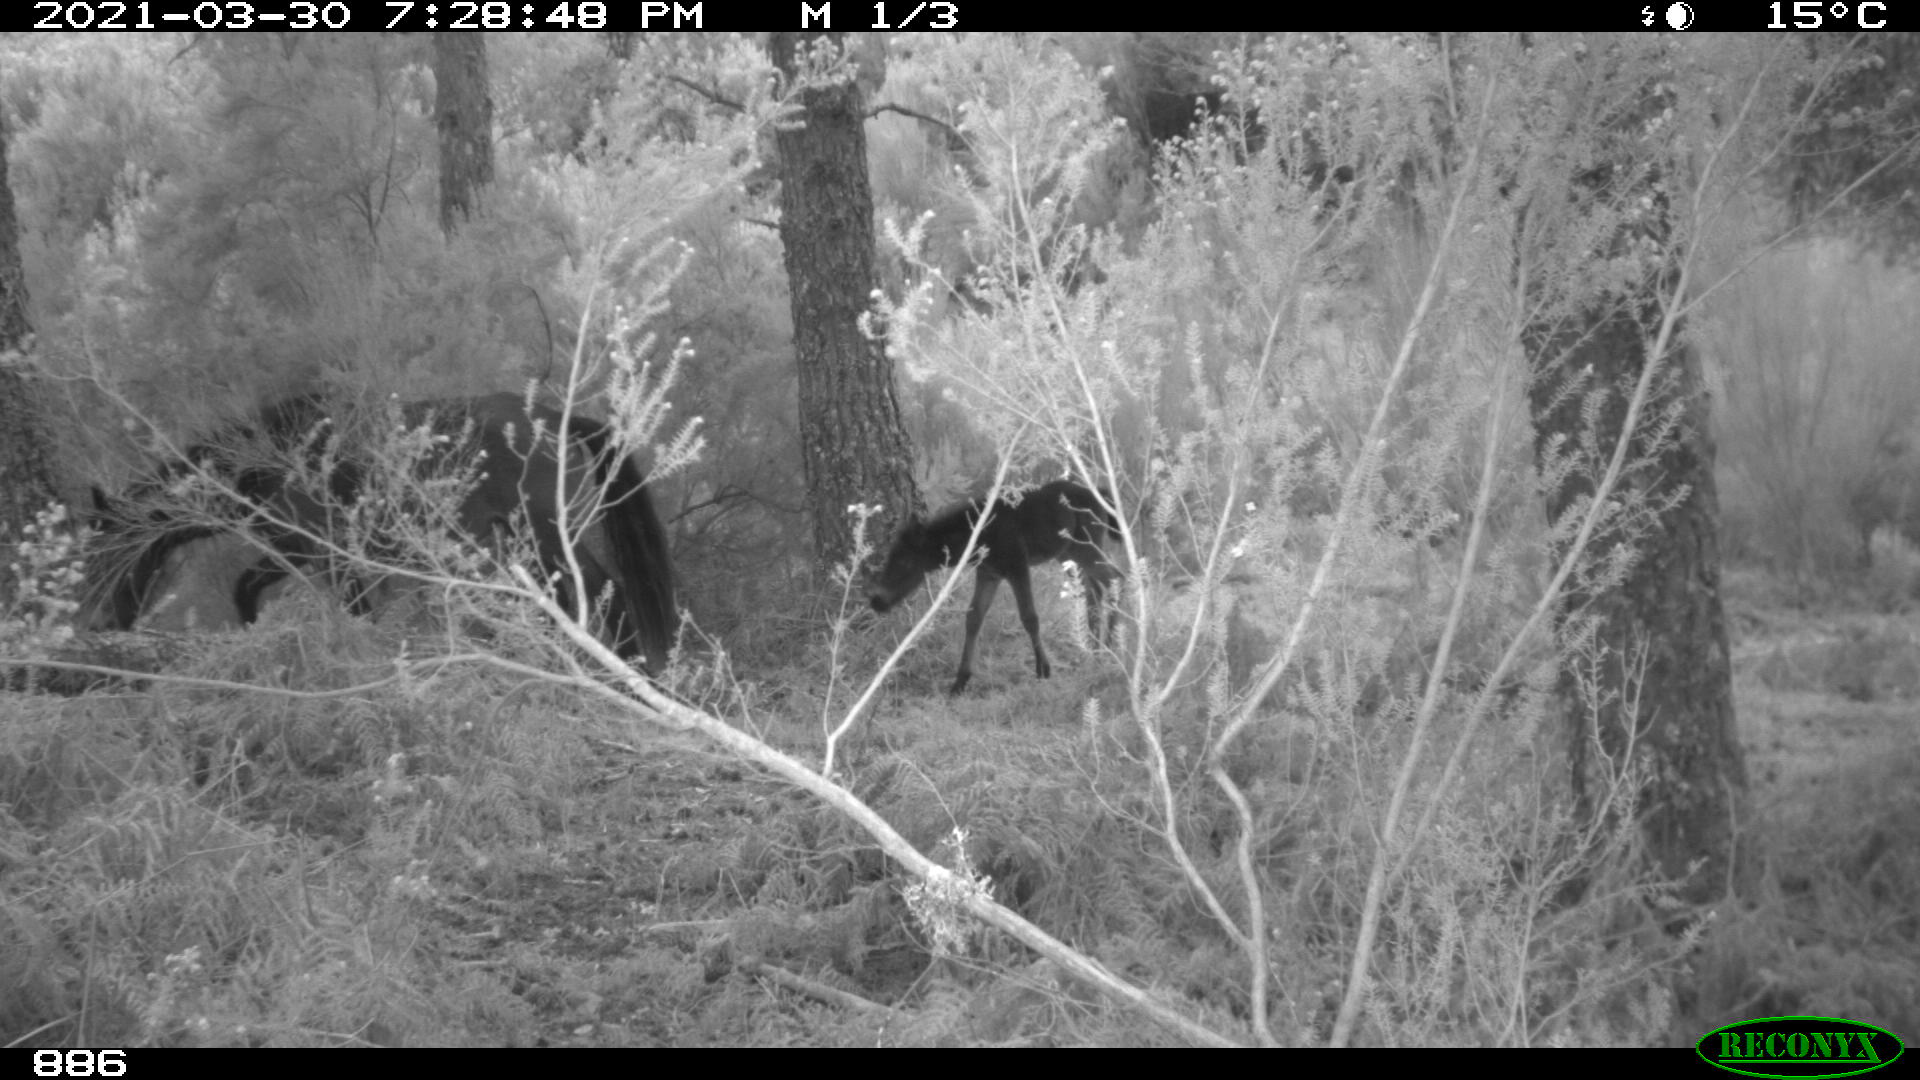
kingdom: Animalia
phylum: Chordata
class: Mammalia
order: Perissodactyla
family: Equidae
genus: Equus
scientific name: Equus caballus
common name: Horse
